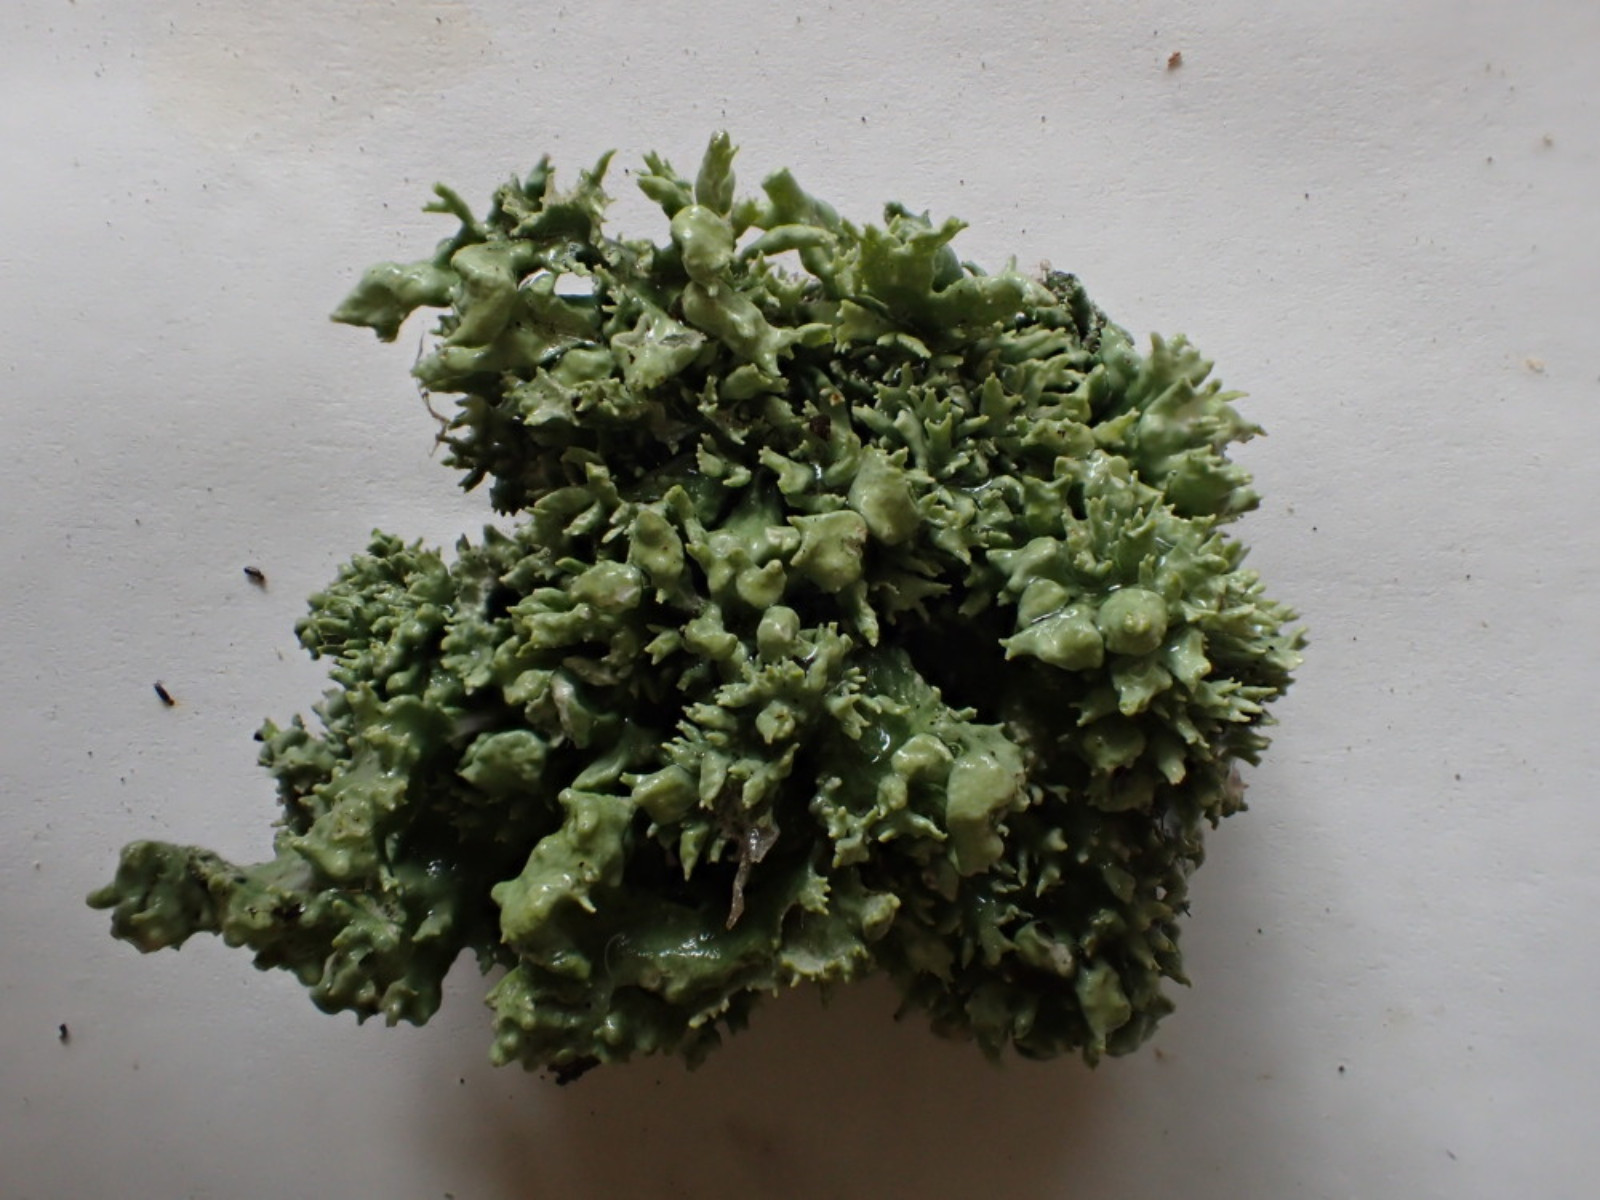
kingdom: Fungi
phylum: Ascomycota
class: Lecanoromycetes
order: Lecanorales
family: Ramalinaceae
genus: Ramalina
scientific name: Ramalina fastigiata
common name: tue-grenlav
